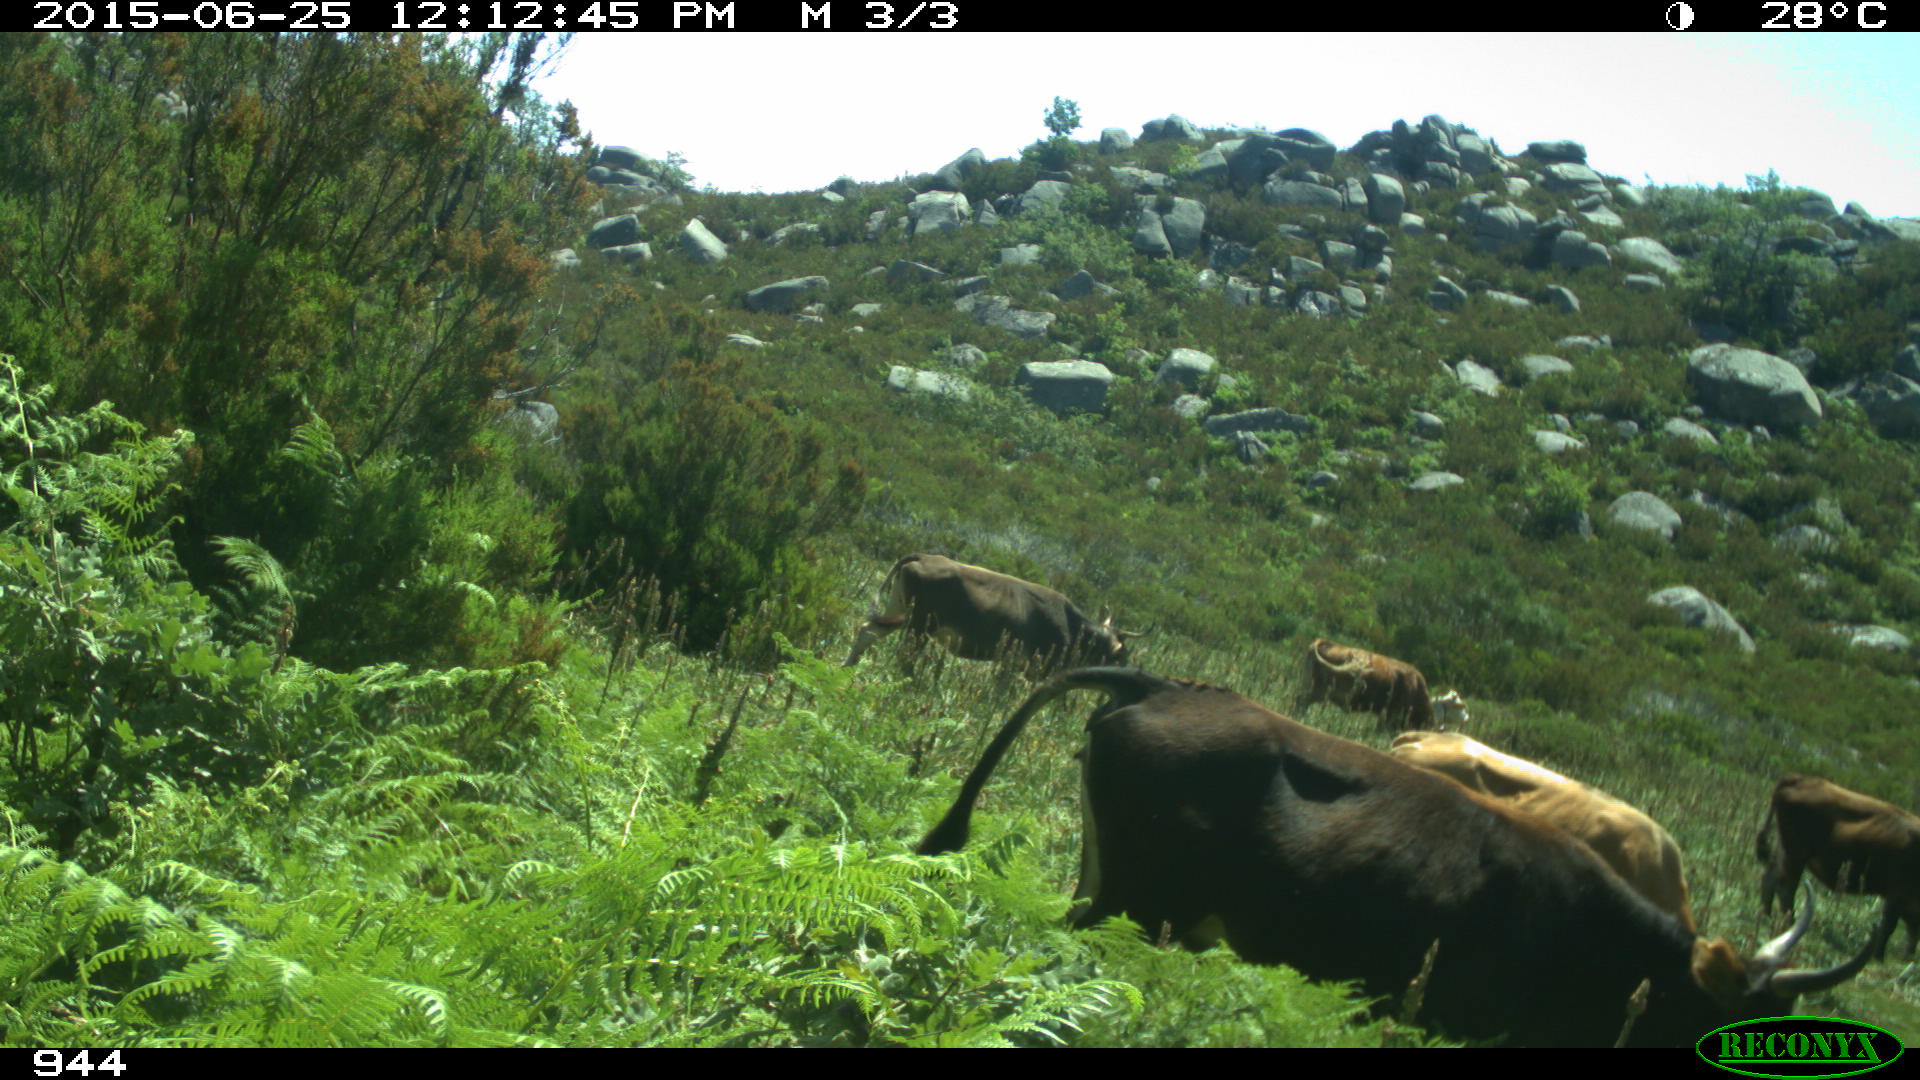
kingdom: Animalia
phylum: Chordata
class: Mammalia
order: Artiodactyla
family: Bovidae
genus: Bos
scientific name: Bos taurus
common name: Domesticated cattle
